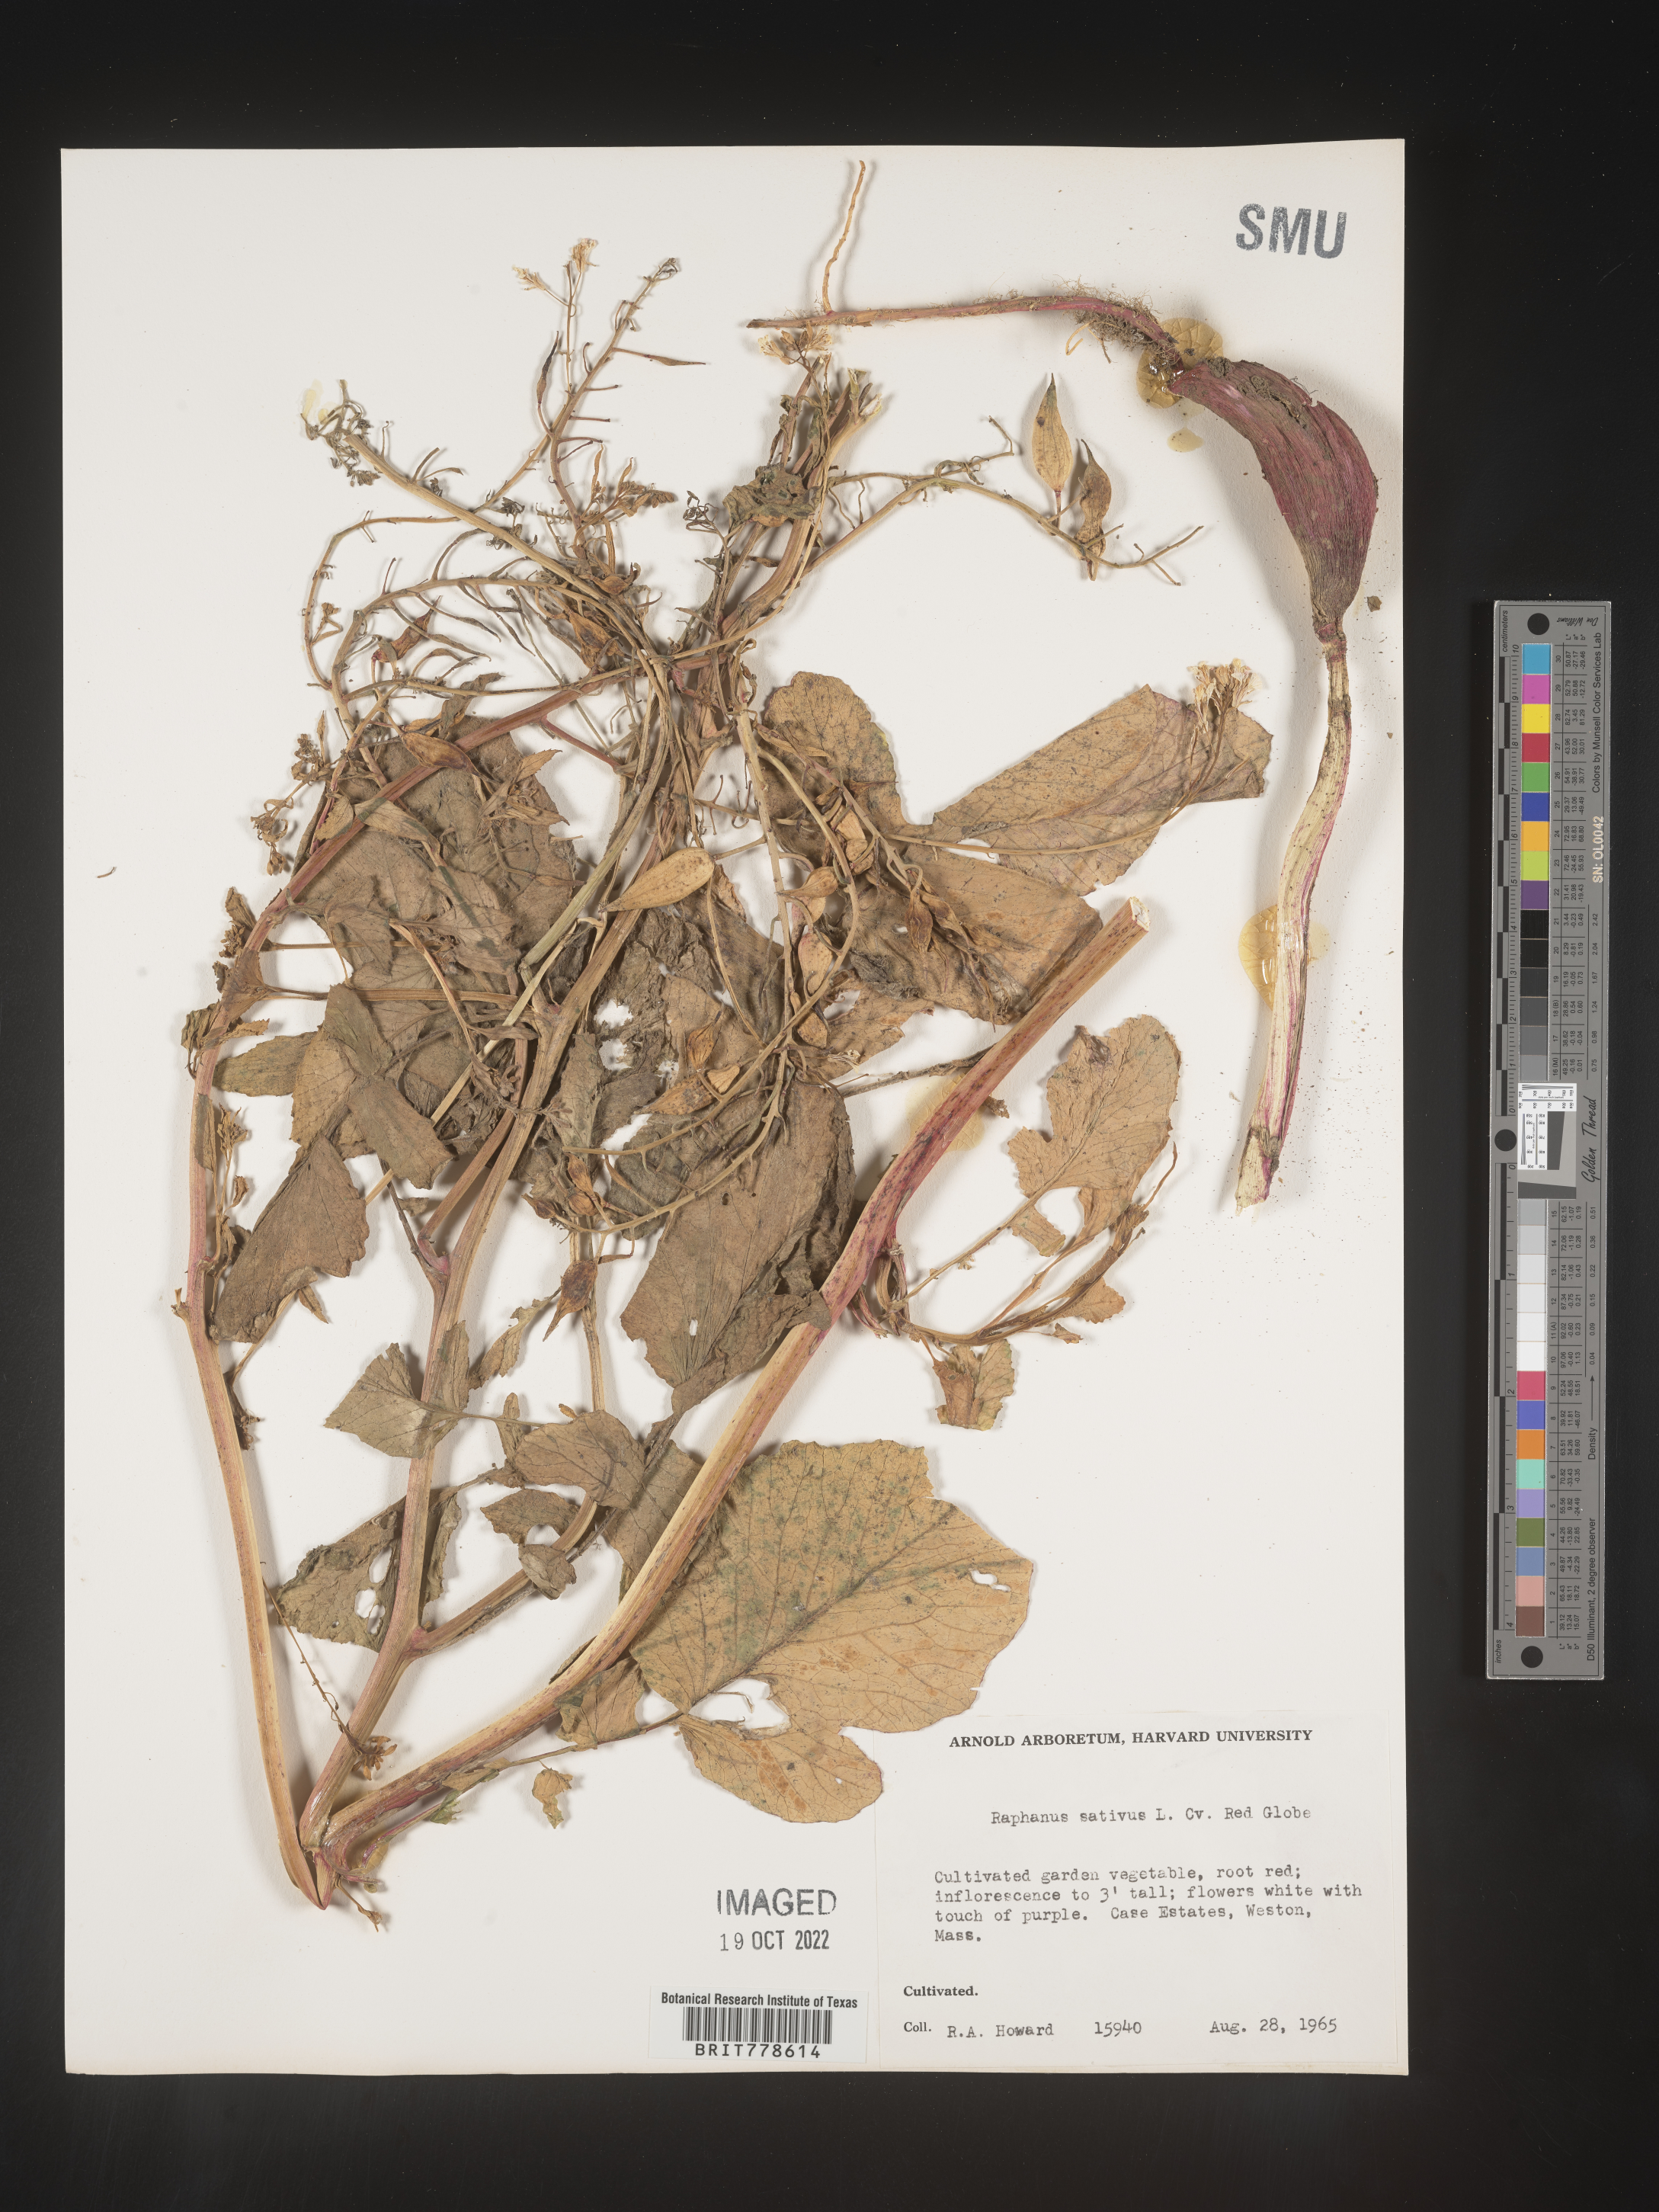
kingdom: Plantae
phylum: Tracheophyta
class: Magnoliopsida
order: Brassicales
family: Brassicaceae
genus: Raphanus
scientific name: Raphanus
